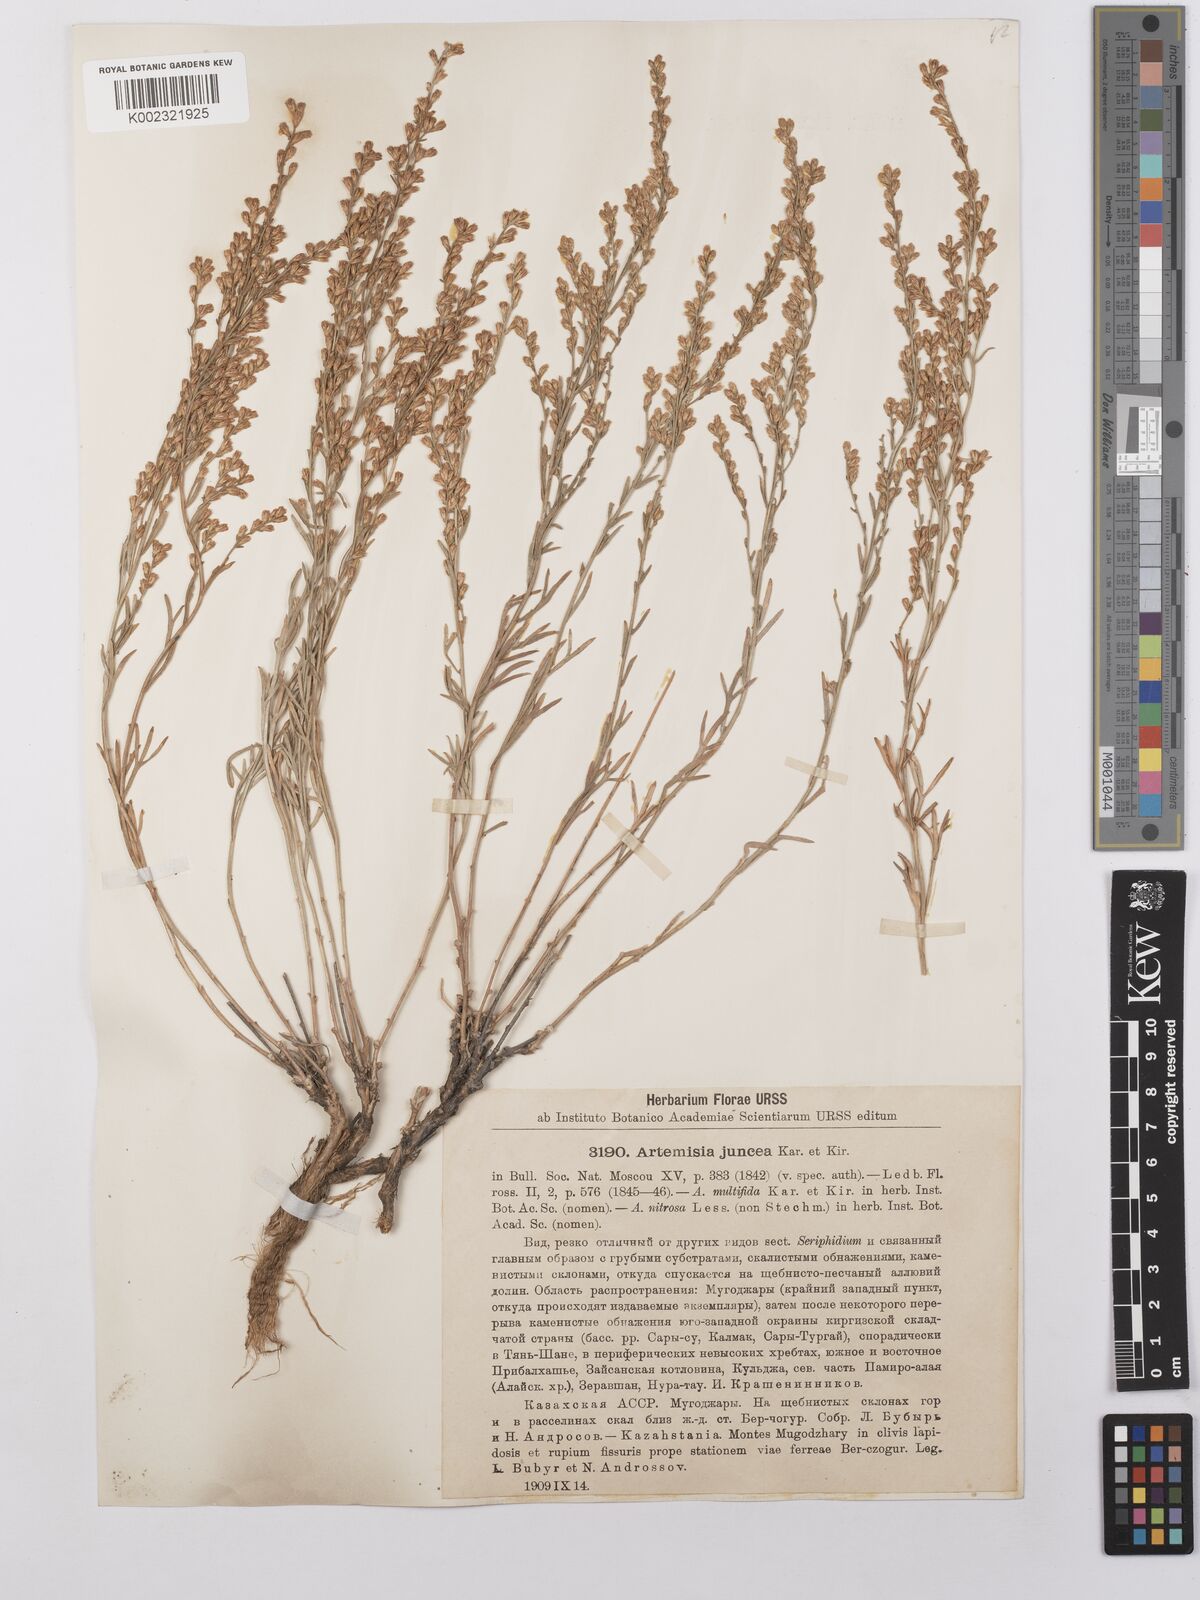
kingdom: Plantae
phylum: Tracheophyta
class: Magnoliopsida
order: Asterales
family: Asteraceae
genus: Artemisia
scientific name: Artemisia juncea
